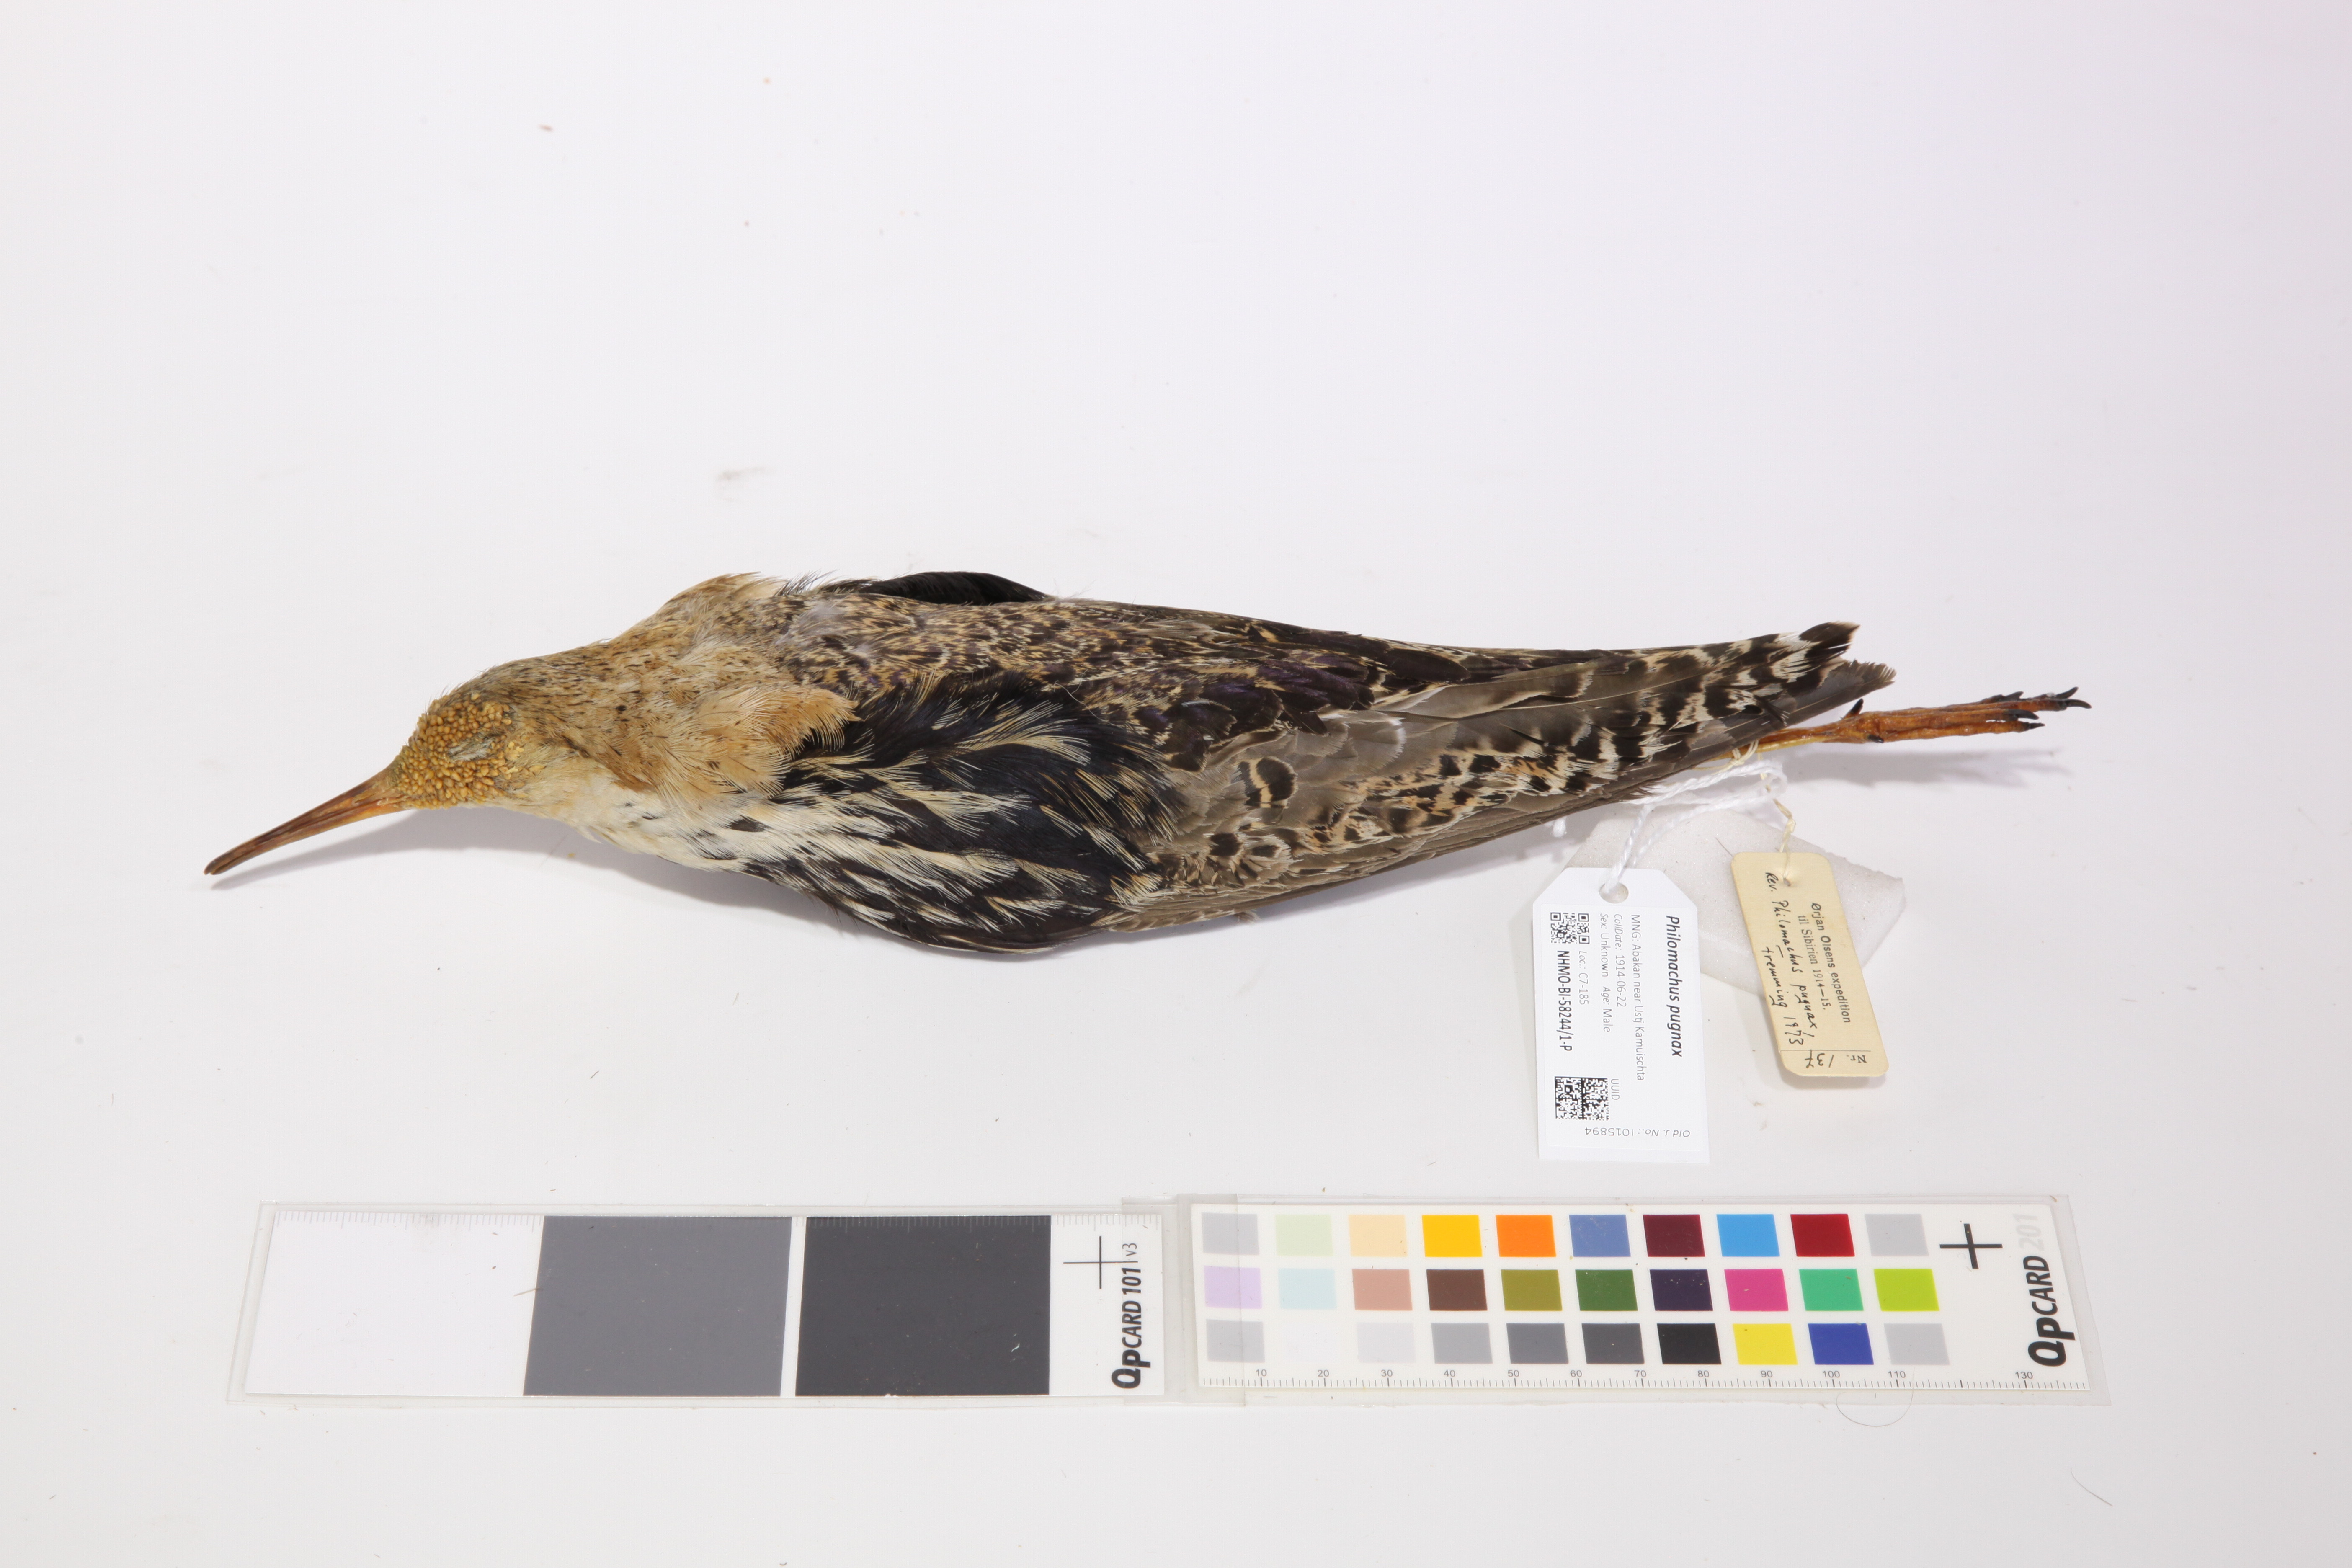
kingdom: Animalia
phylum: Chordata
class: Aves
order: Charadriiformes
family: Scolopacidae
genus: Calidris
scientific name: Calidris pugnax
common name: Ruff
